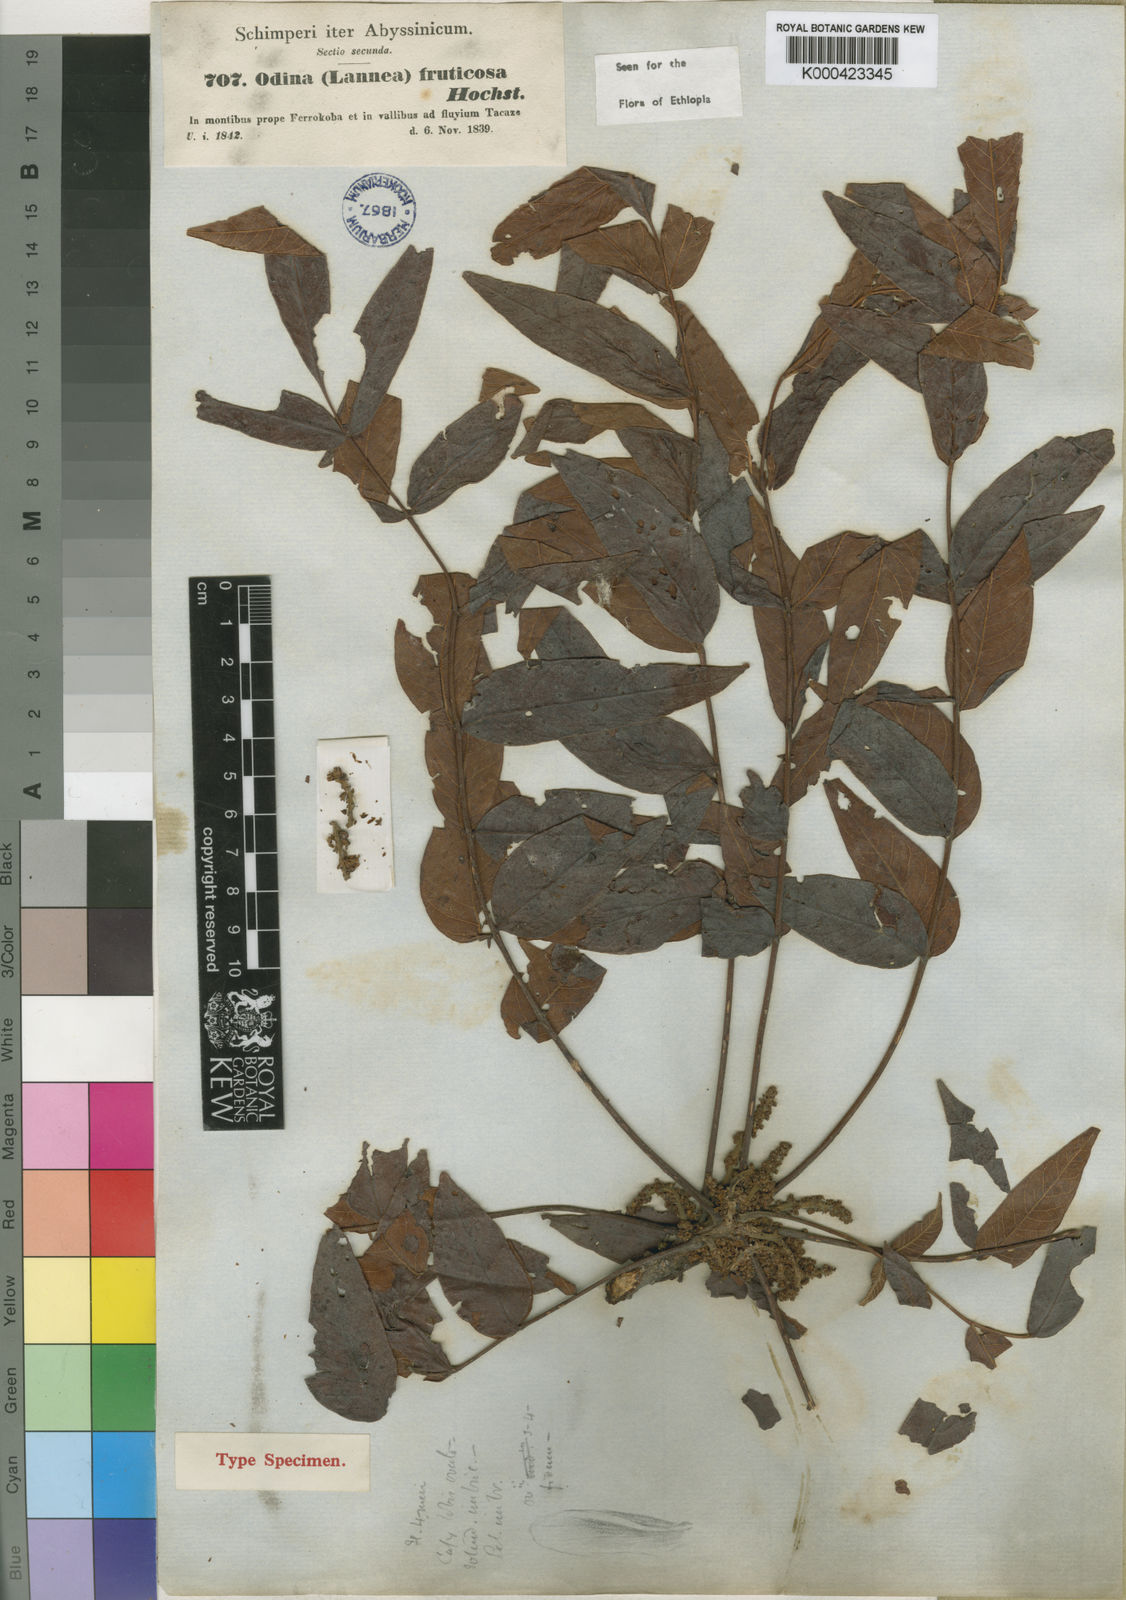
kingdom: Plantae
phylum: Tracheophyta
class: Magnoliopsida
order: Sapindales
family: Anacardiaceae
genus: Lannea
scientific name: Lannea fruticosa
